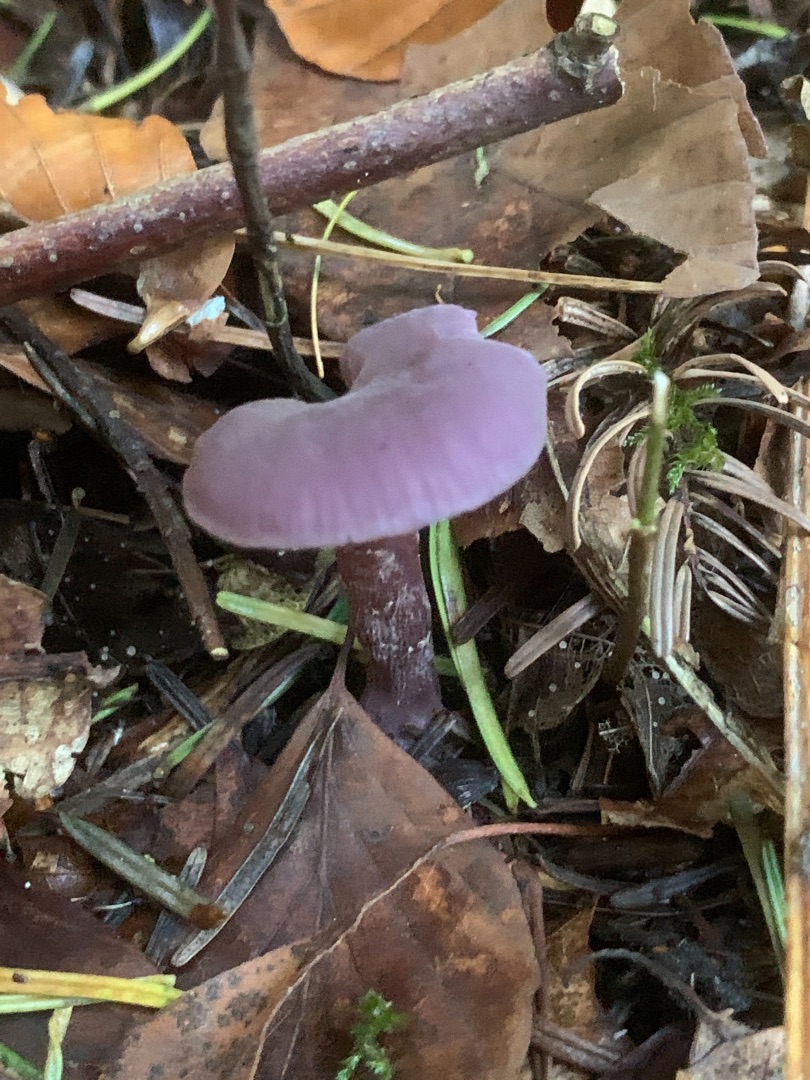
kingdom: Fungi
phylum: Basidiomycota
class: Agaricomycetes
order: Agaricales
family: Hydnangiaceae
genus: Laccaria
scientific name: Laccaria amethystina
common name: Violet ametysthat
